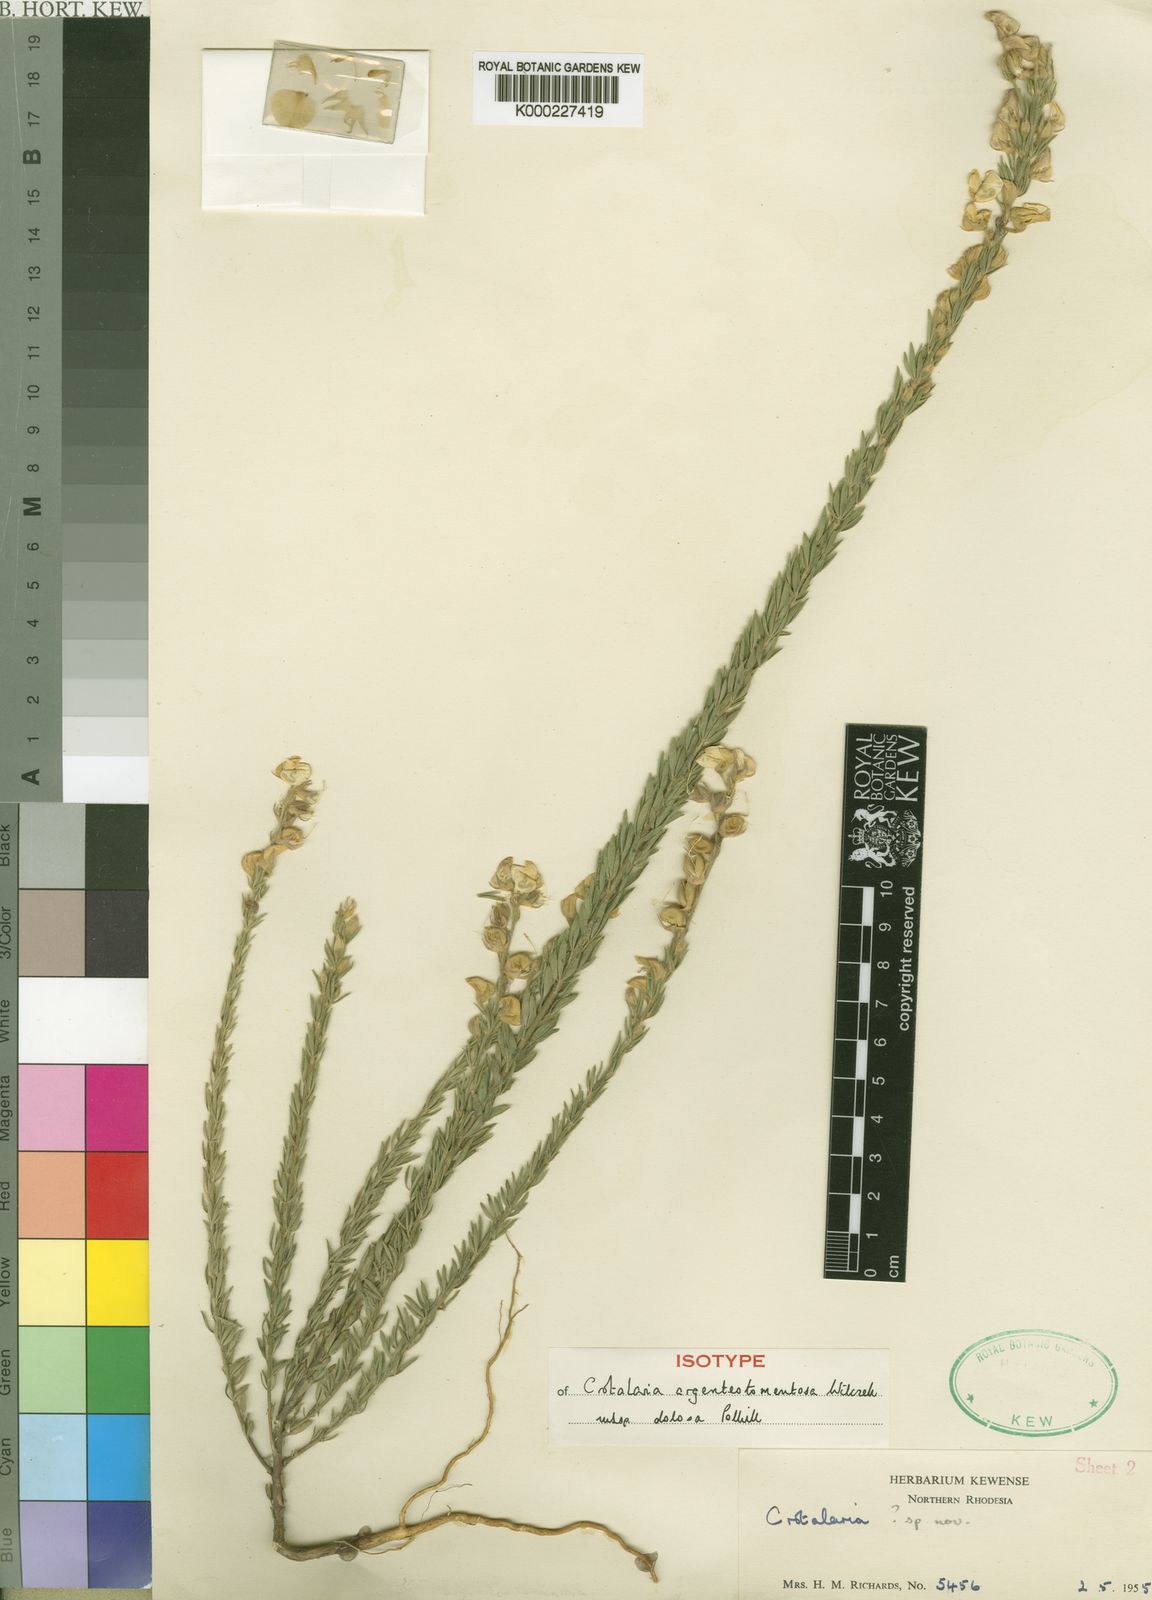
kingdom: Plantae
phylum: Tracheophyta
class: Magnoliopsida
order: Fabales
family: Fabaceae
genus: Crotalaria
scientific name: Crotalaria argenteotomentosa
